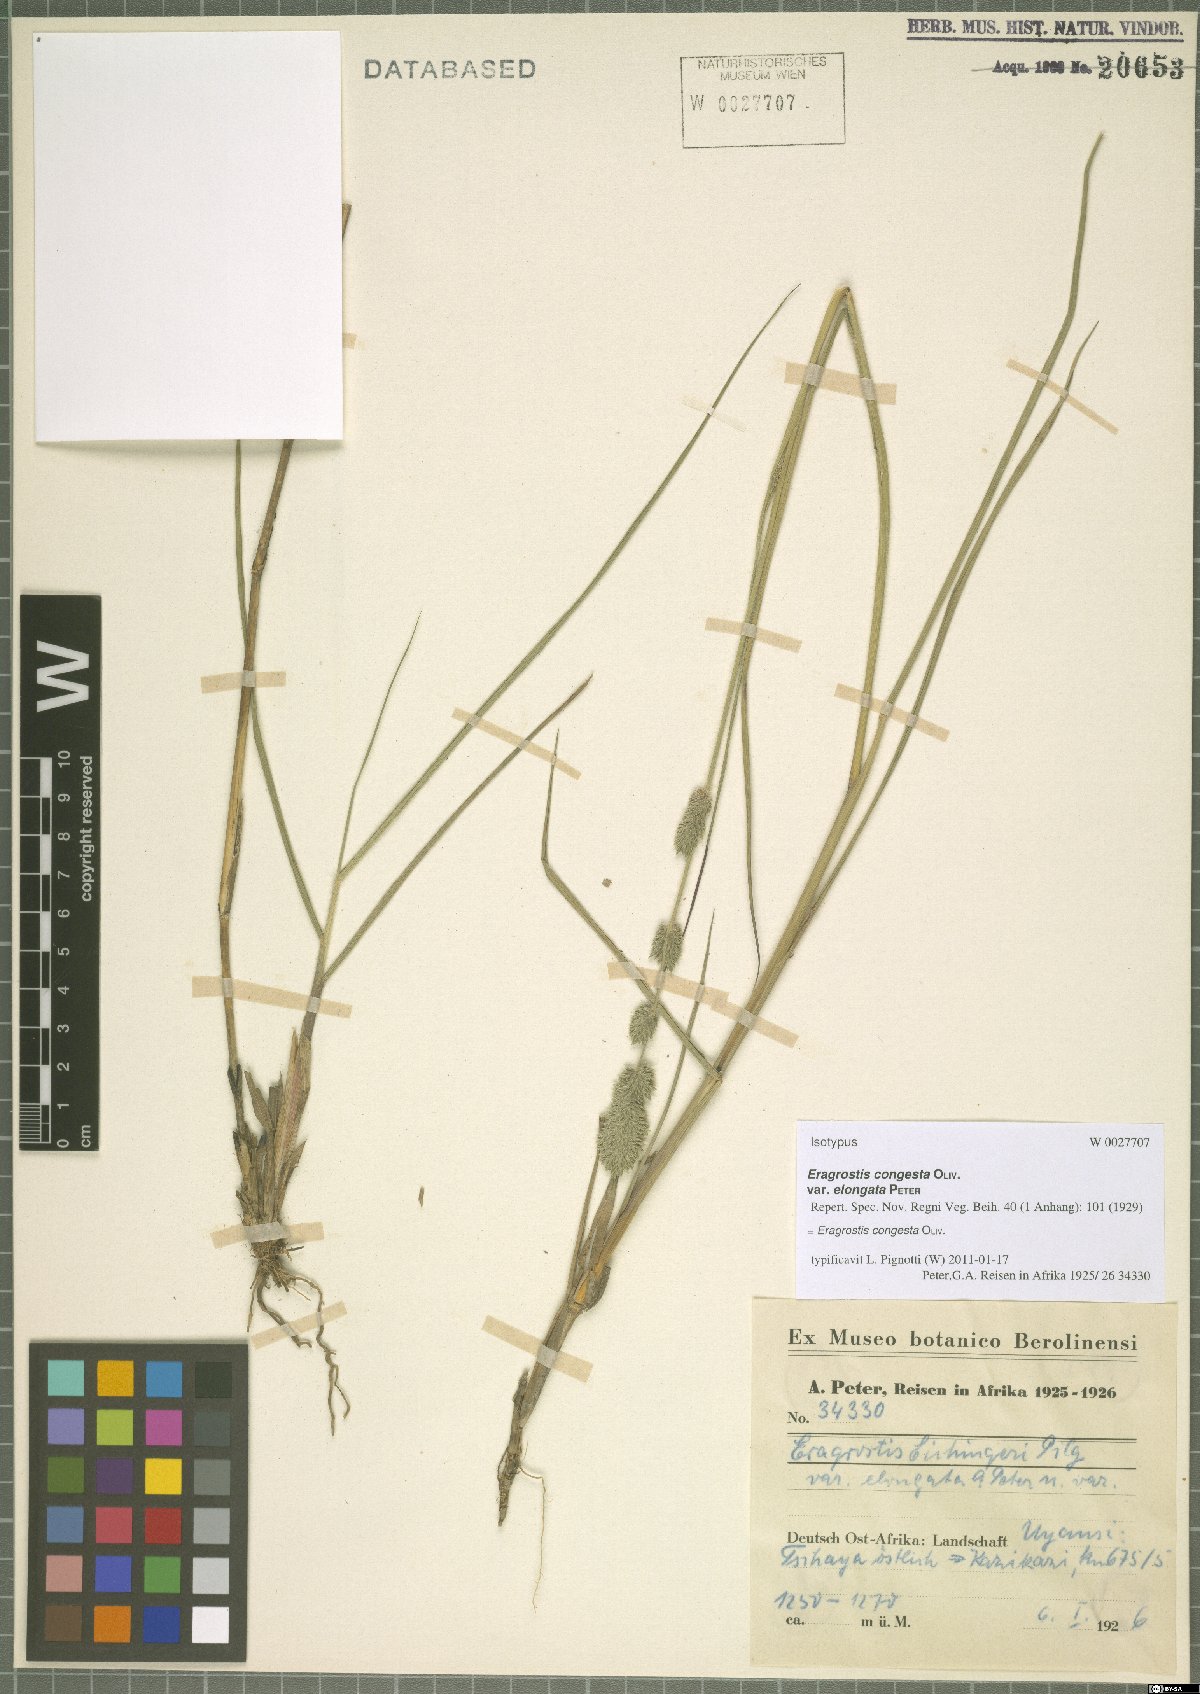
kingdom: Plantae
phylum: Tracheophyta
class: Liliopsida
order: Poales
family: Poaceae
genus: Eragrostis
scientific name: Eragrostis congesta
